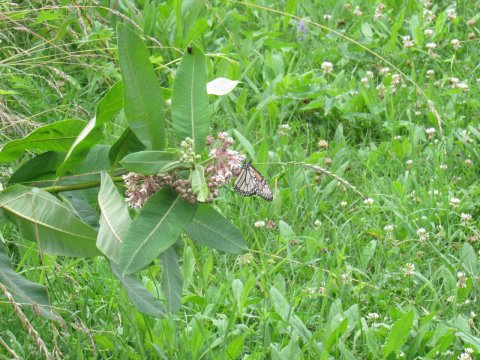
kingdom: Animalia
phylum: Arthropoda
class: Insecta
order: Lepidoptera
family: Nymphalidae
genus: Danaus
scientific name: Danaus plexippus
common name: Monarch
